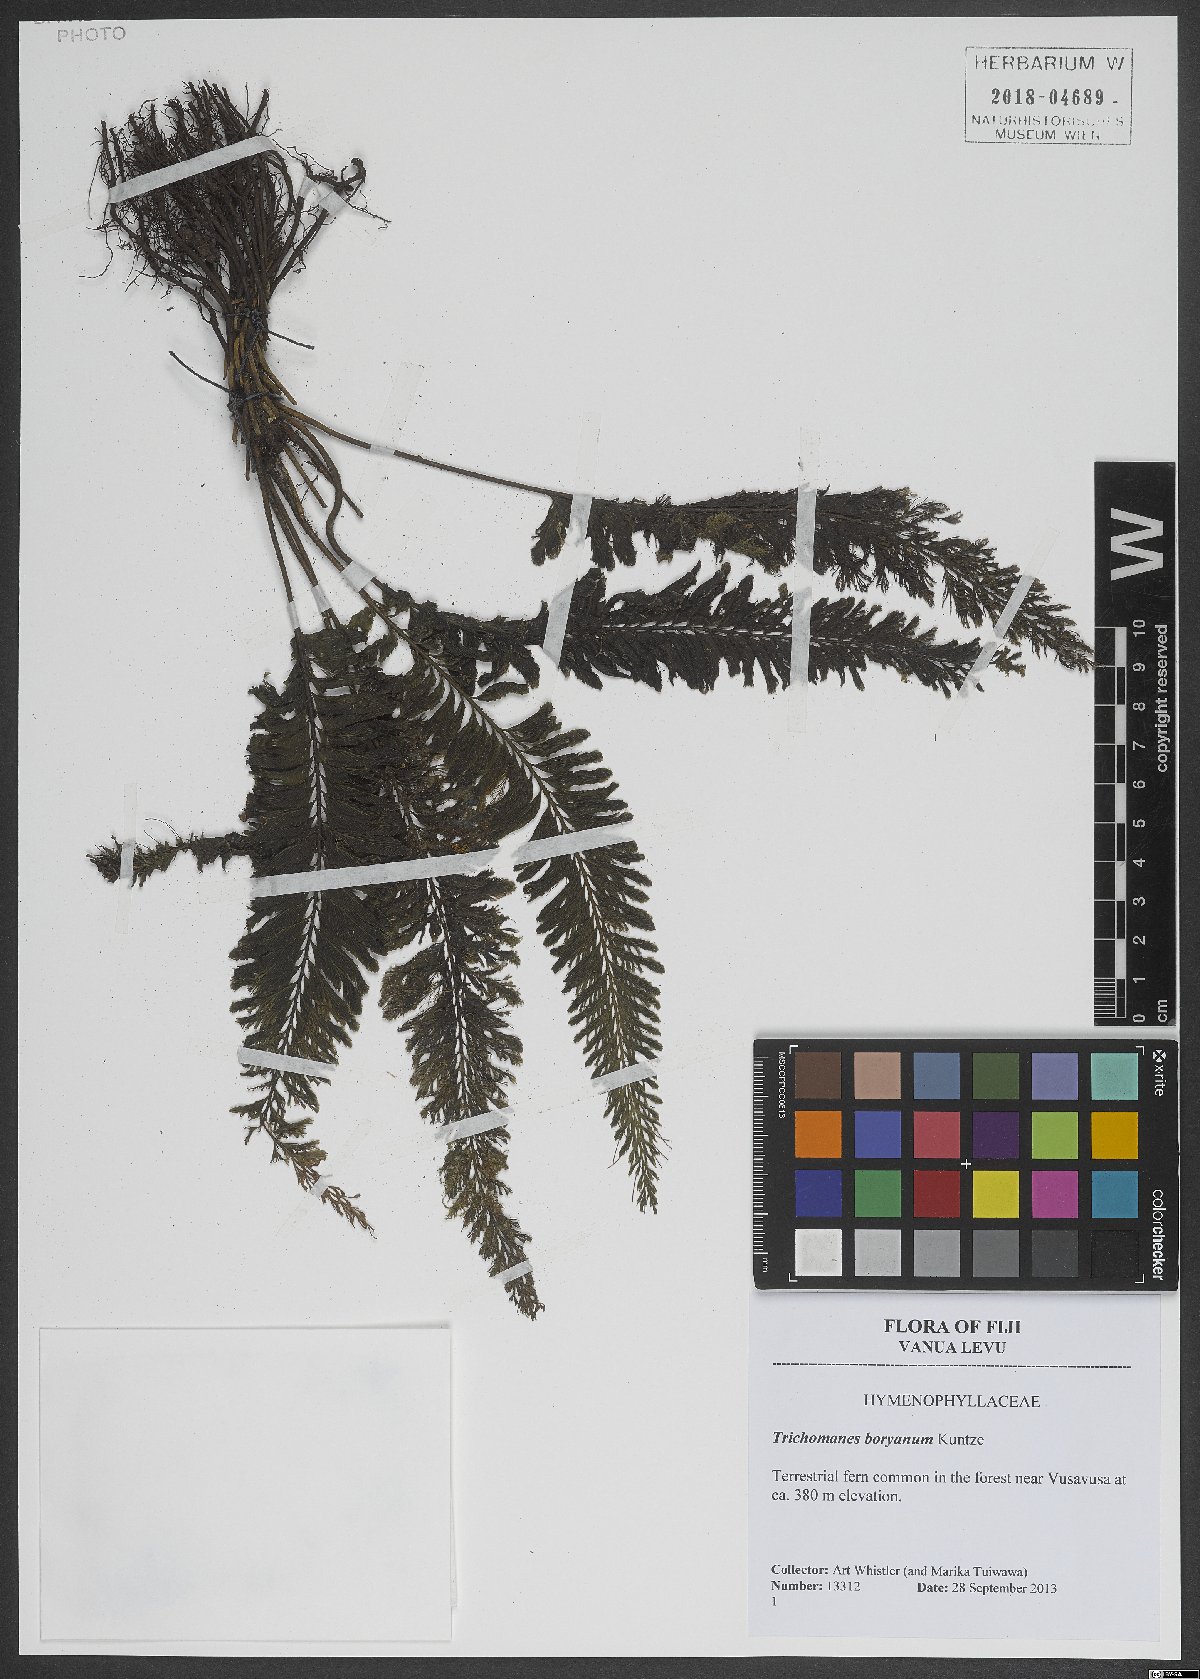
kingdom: Plantae
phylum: Tracheophyta
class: Polypodiopsida
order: Hymenophyllales
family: Hymenophyllaceae
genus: Cephalomanes
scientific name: Cephalomanes boryanum
